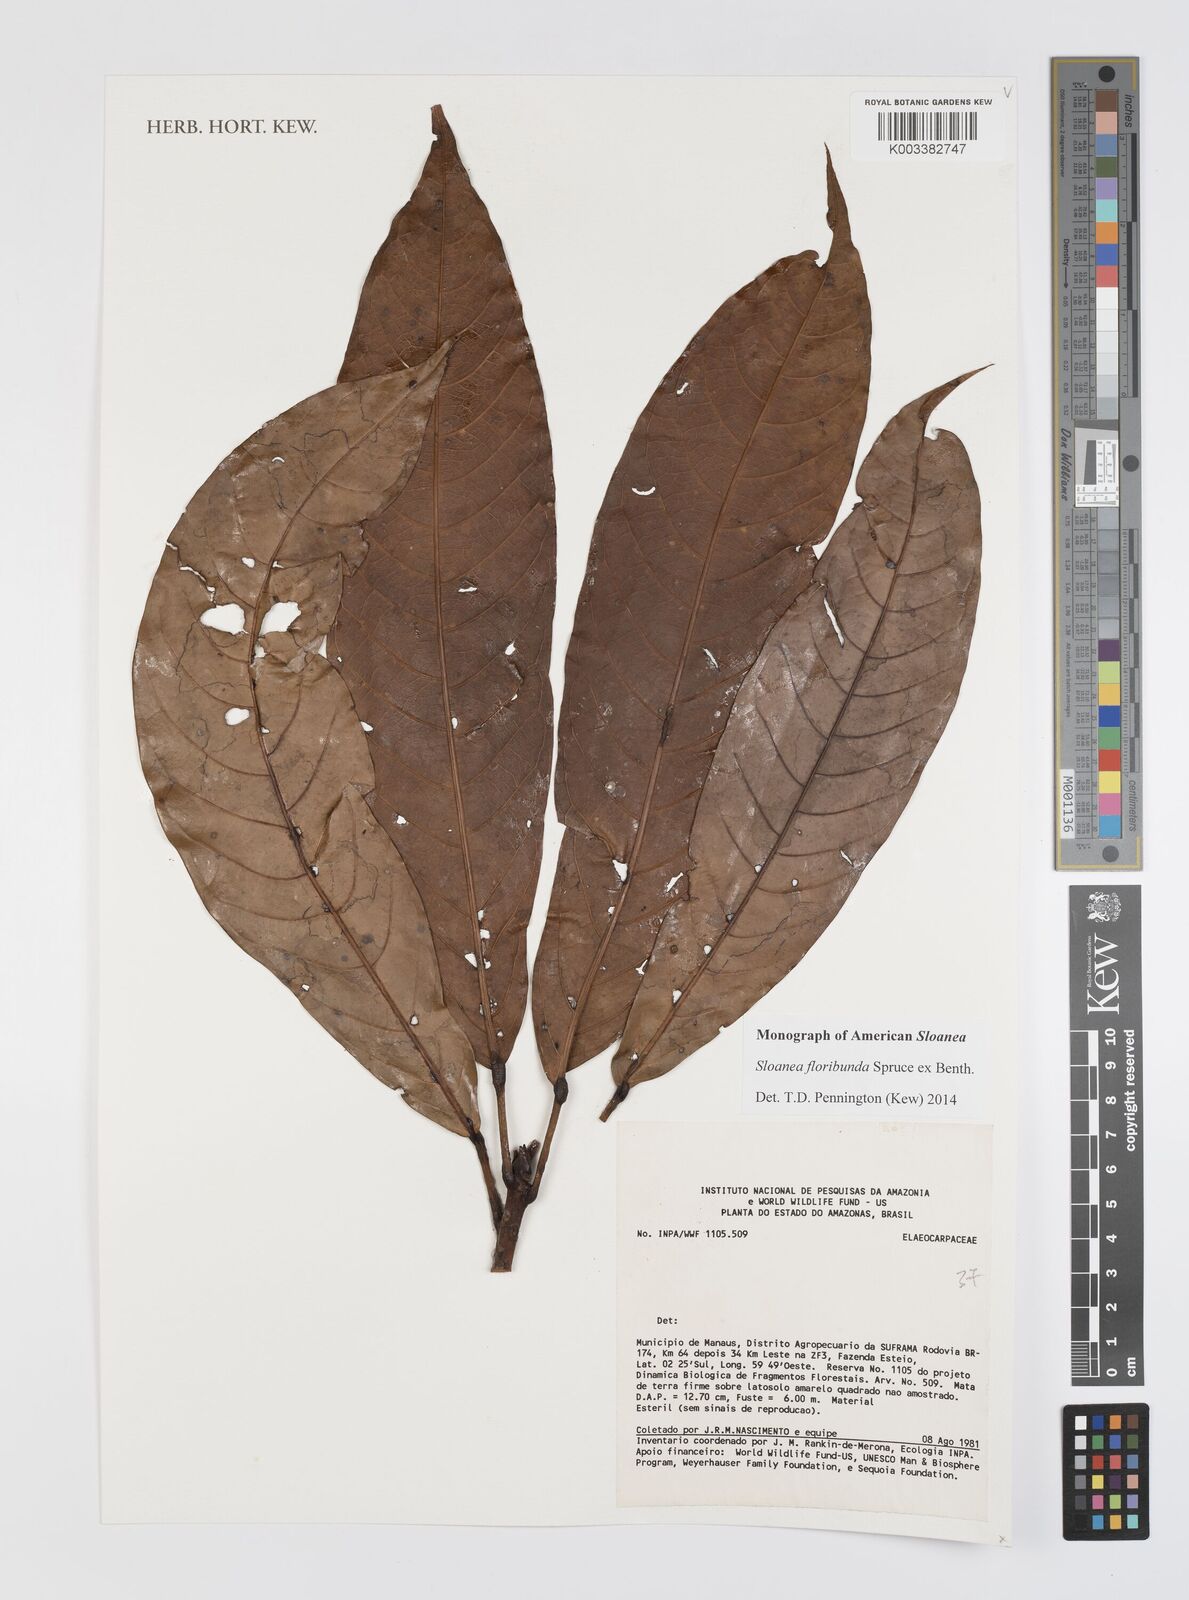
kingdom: Plantae
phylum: Tracheophyta
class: Magnoliopsida
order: Oxalidales
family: Elaeocarpaceae
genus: Sloanea
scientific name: Sloanea floribunda
